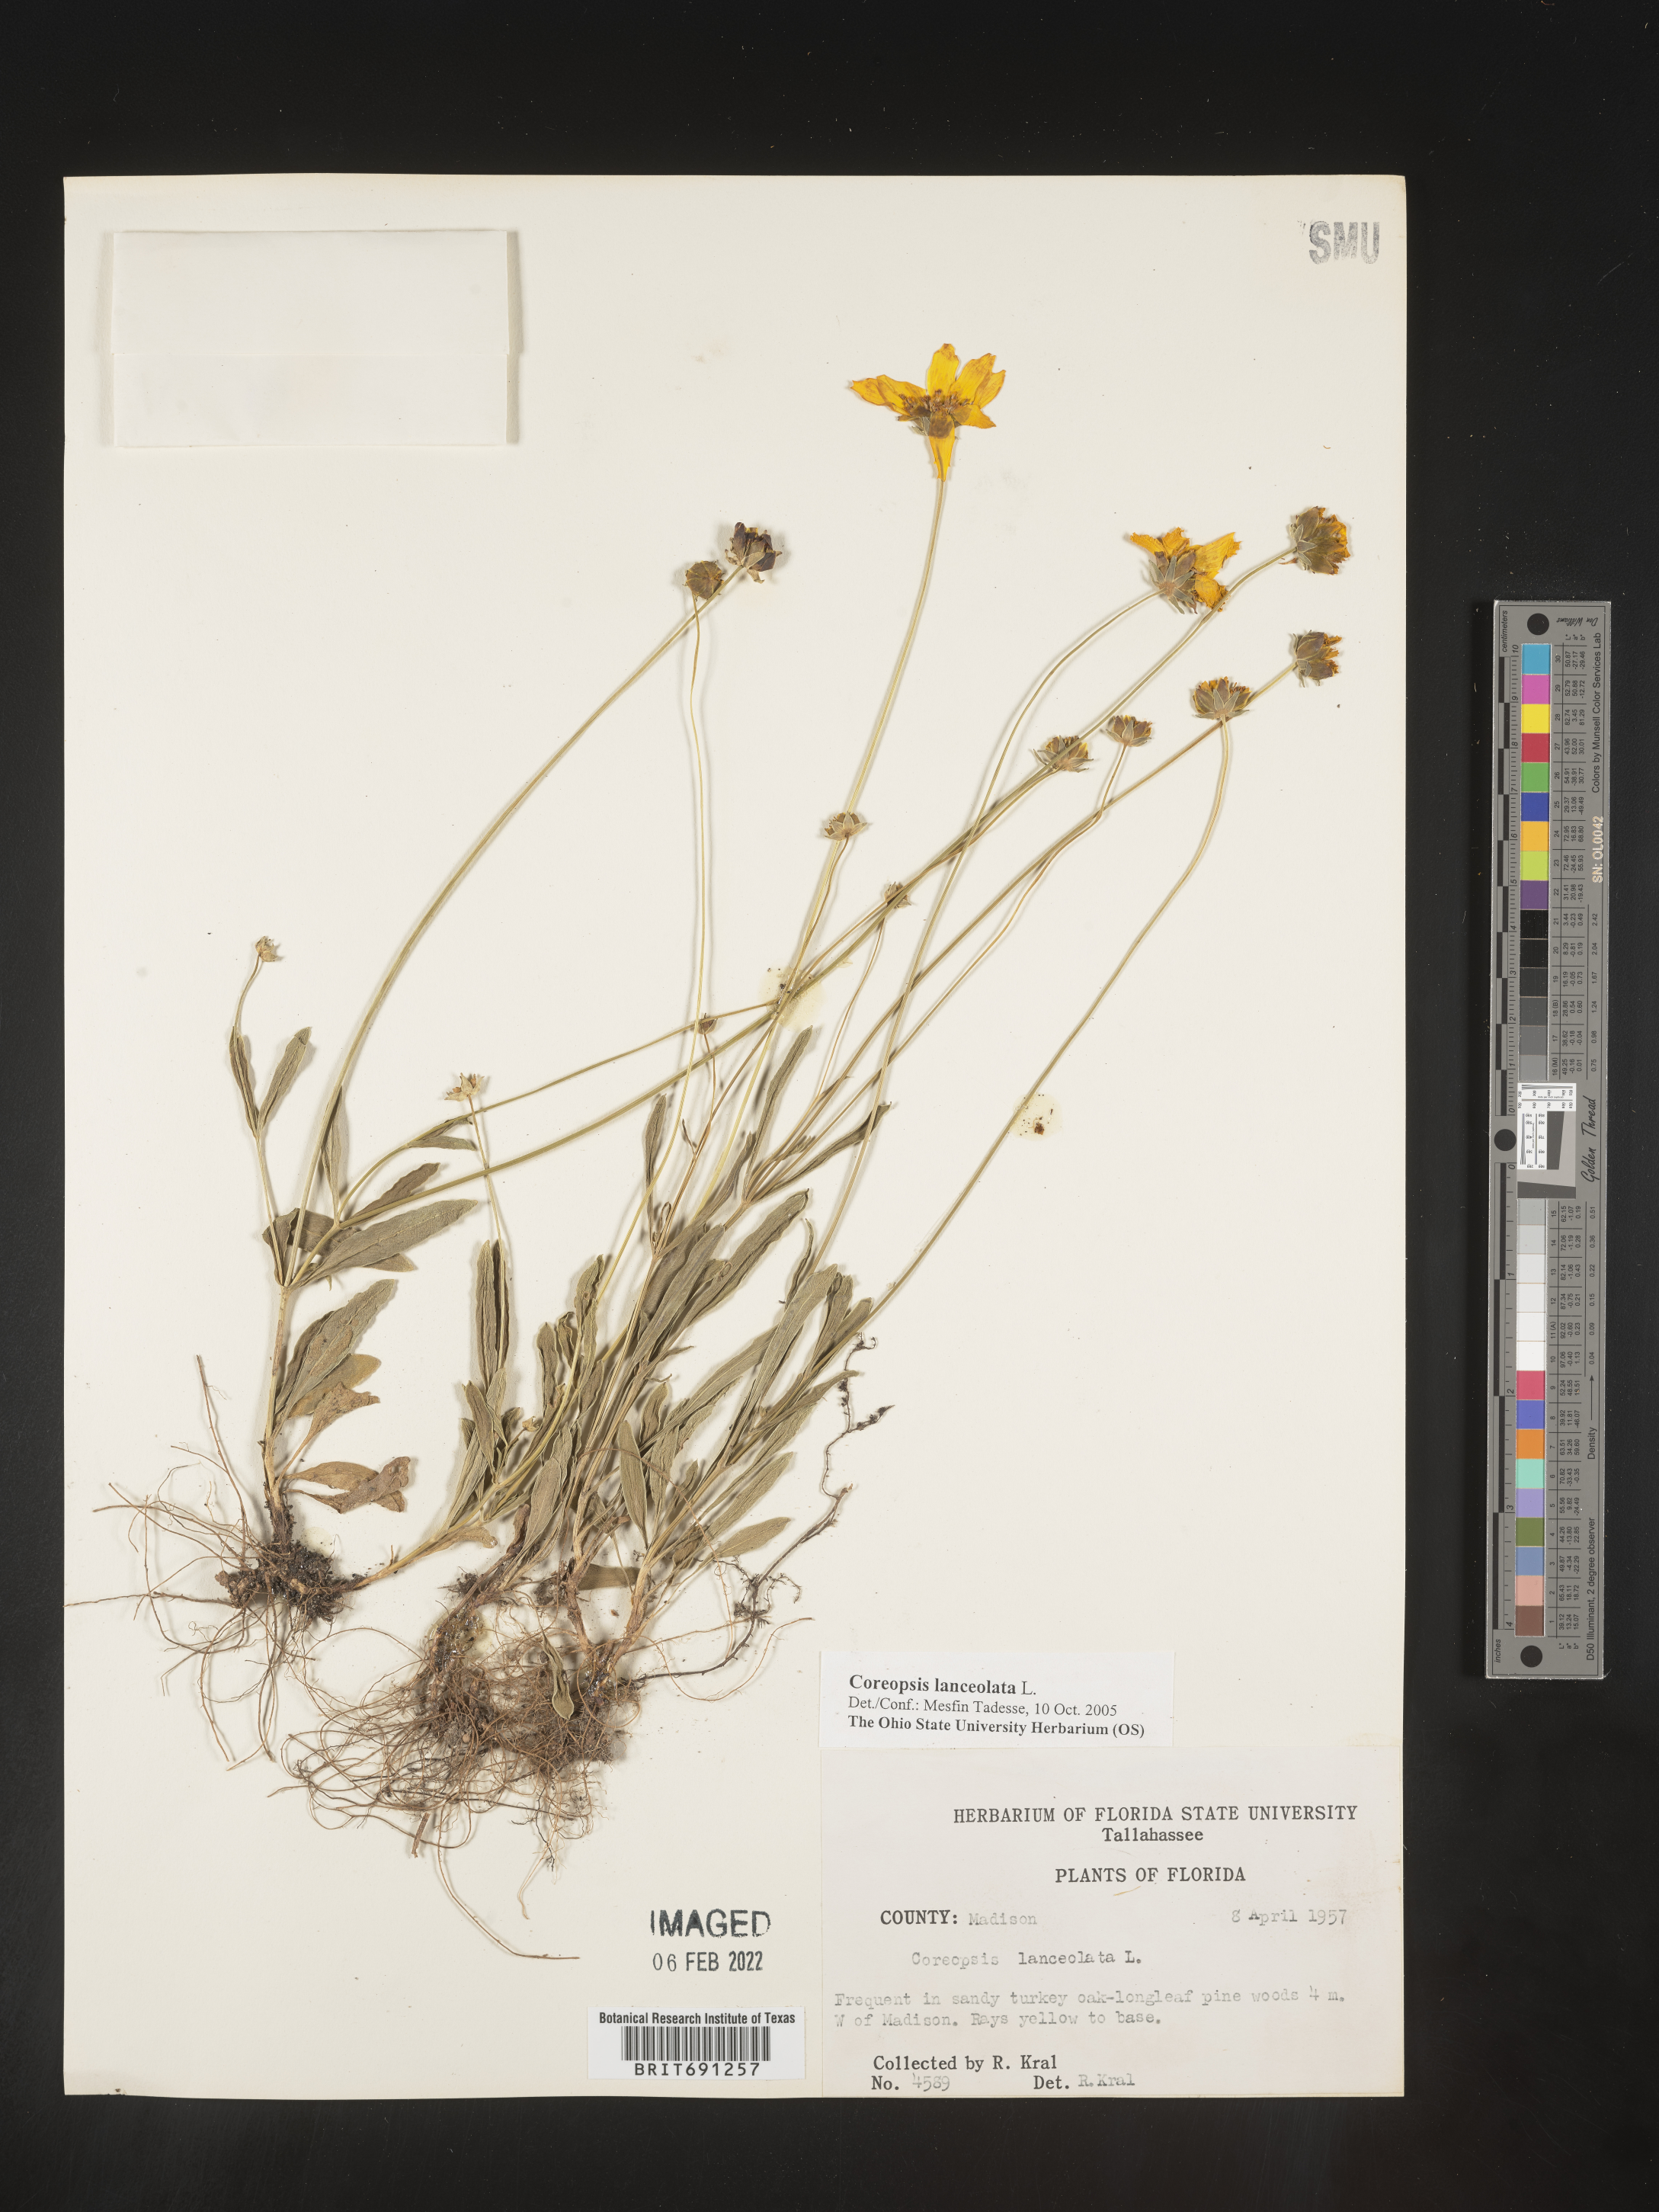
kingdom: Plantae
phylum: Tracheophyta
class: Magnoliopsida
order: Asterales
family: Asteraceae
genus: Coreopsis
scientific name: Coreopsis lanceolata
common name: Garden coreopsis
